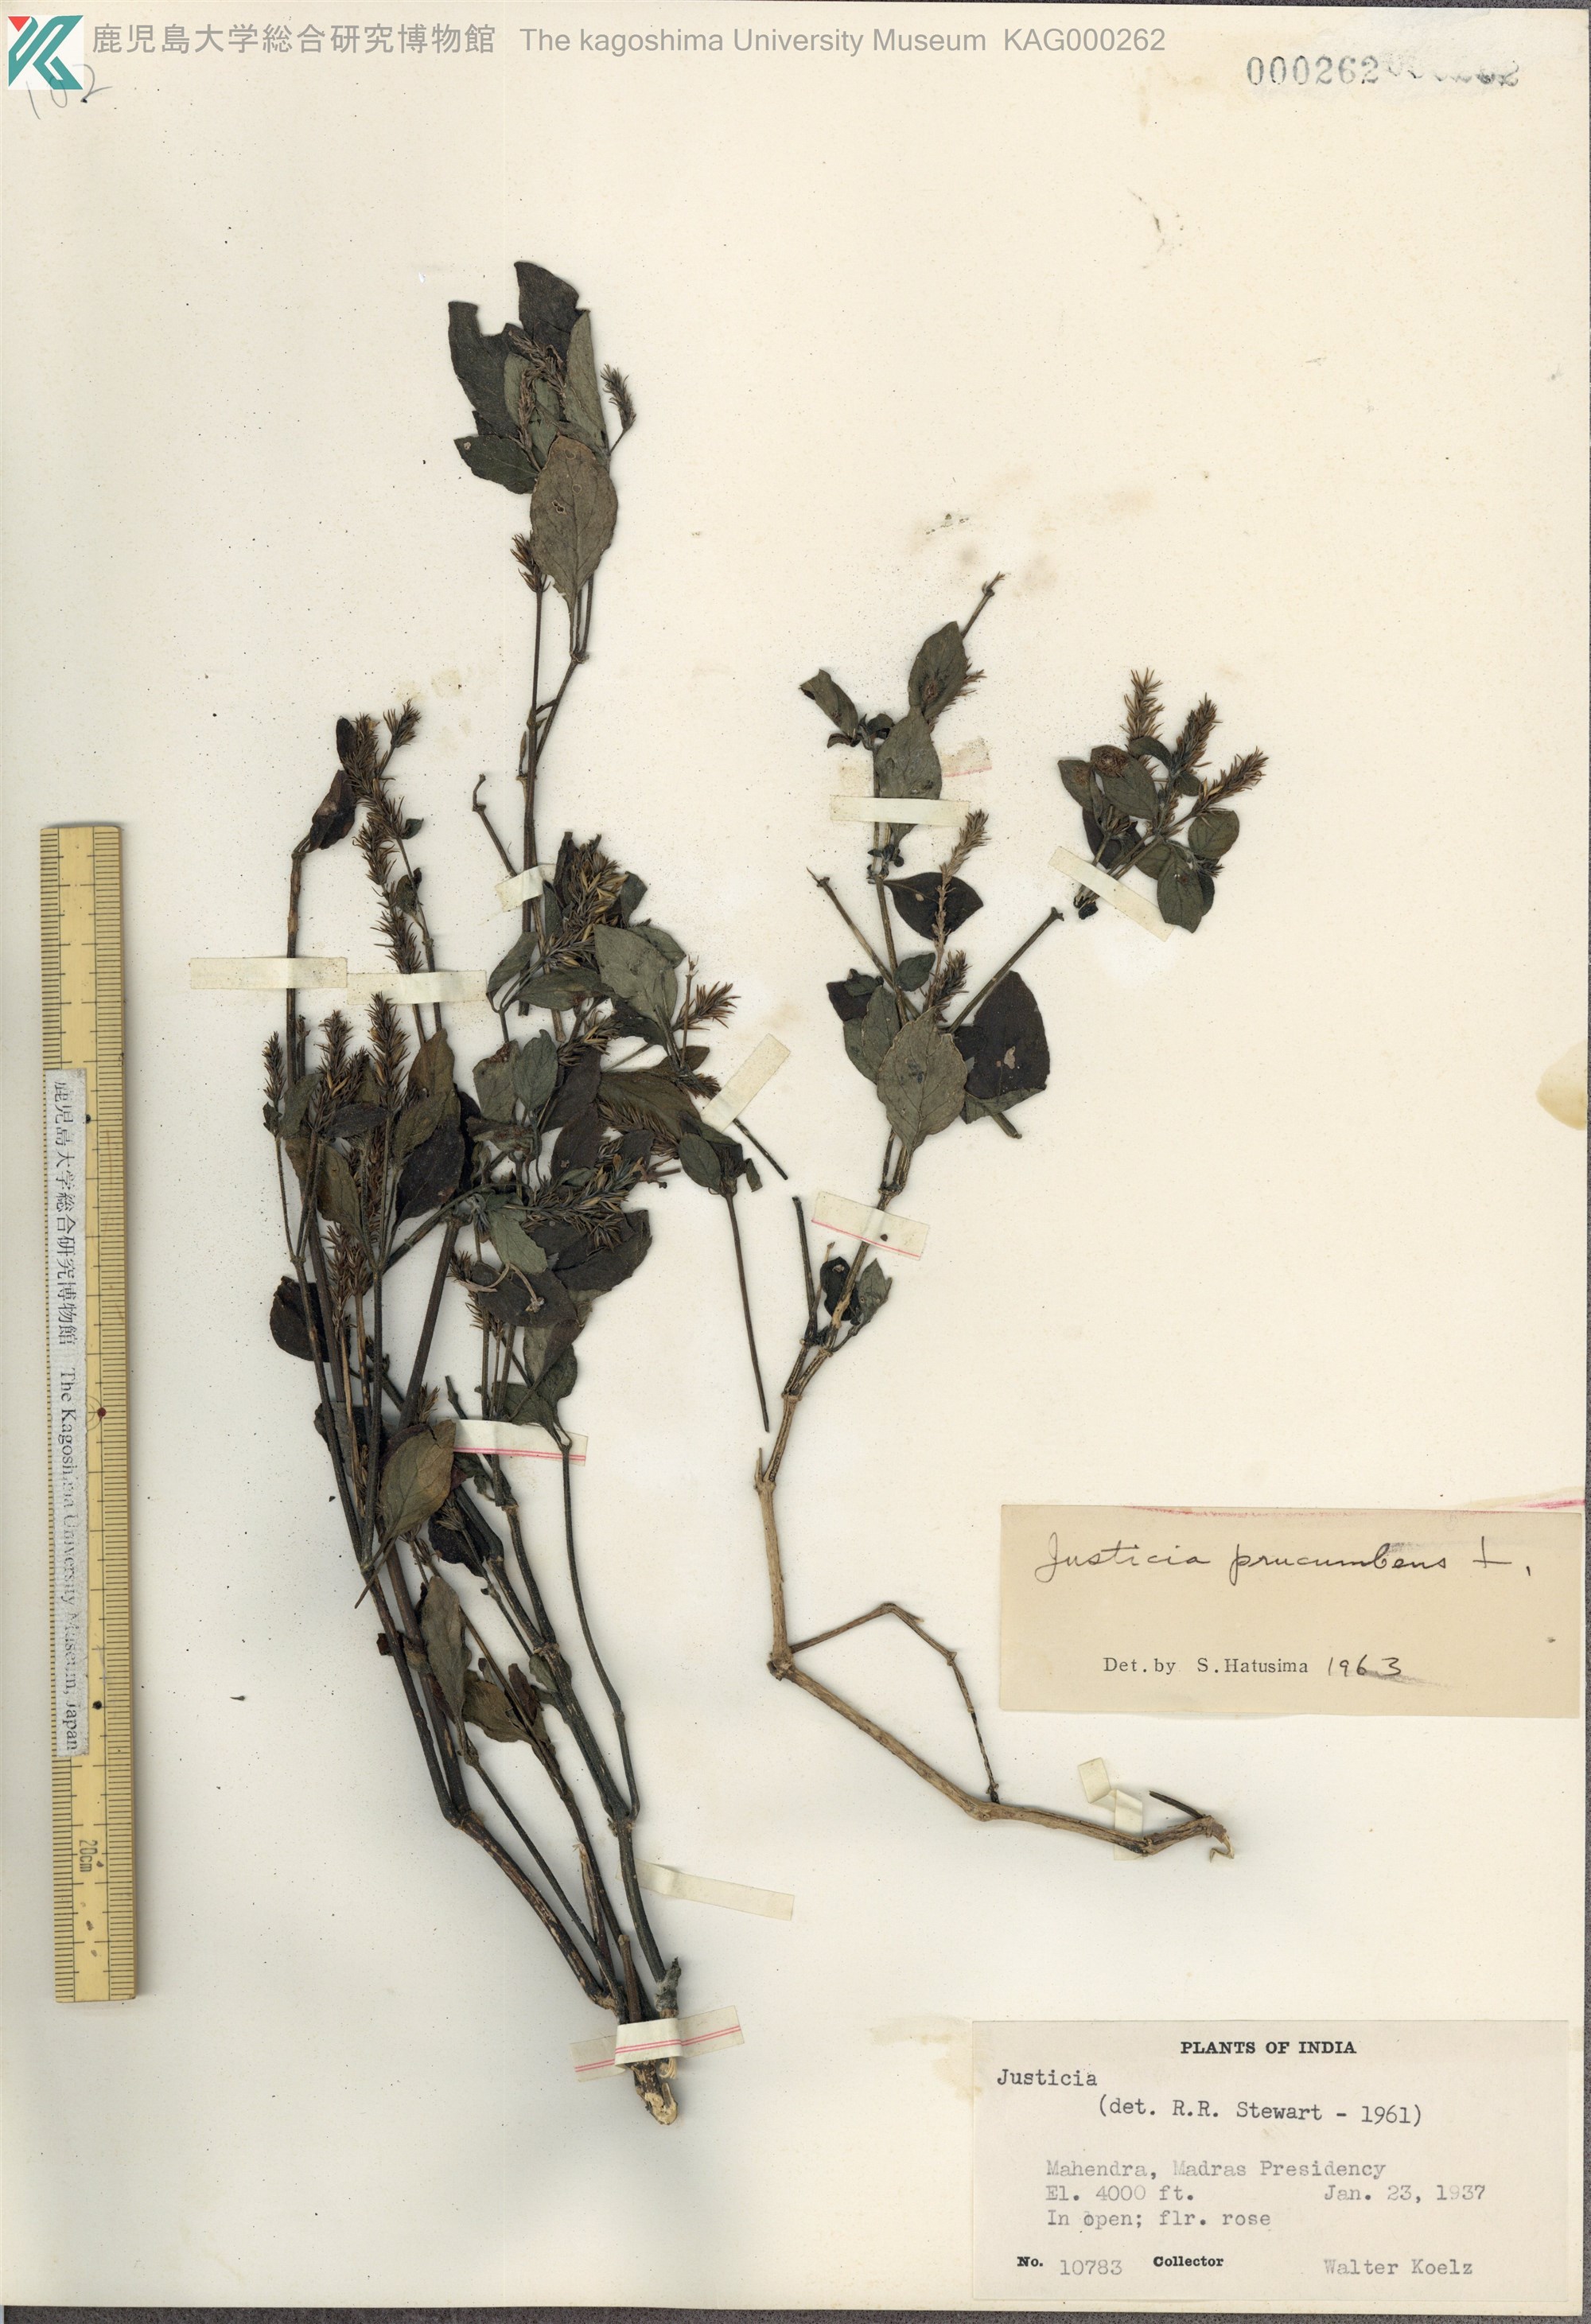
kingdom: Plantae
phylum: Tracheophyta
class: Magnoliopsida
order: Lamiales
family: Acanthaceae
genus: Rostellularia
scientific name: Rostellularia procumbens
